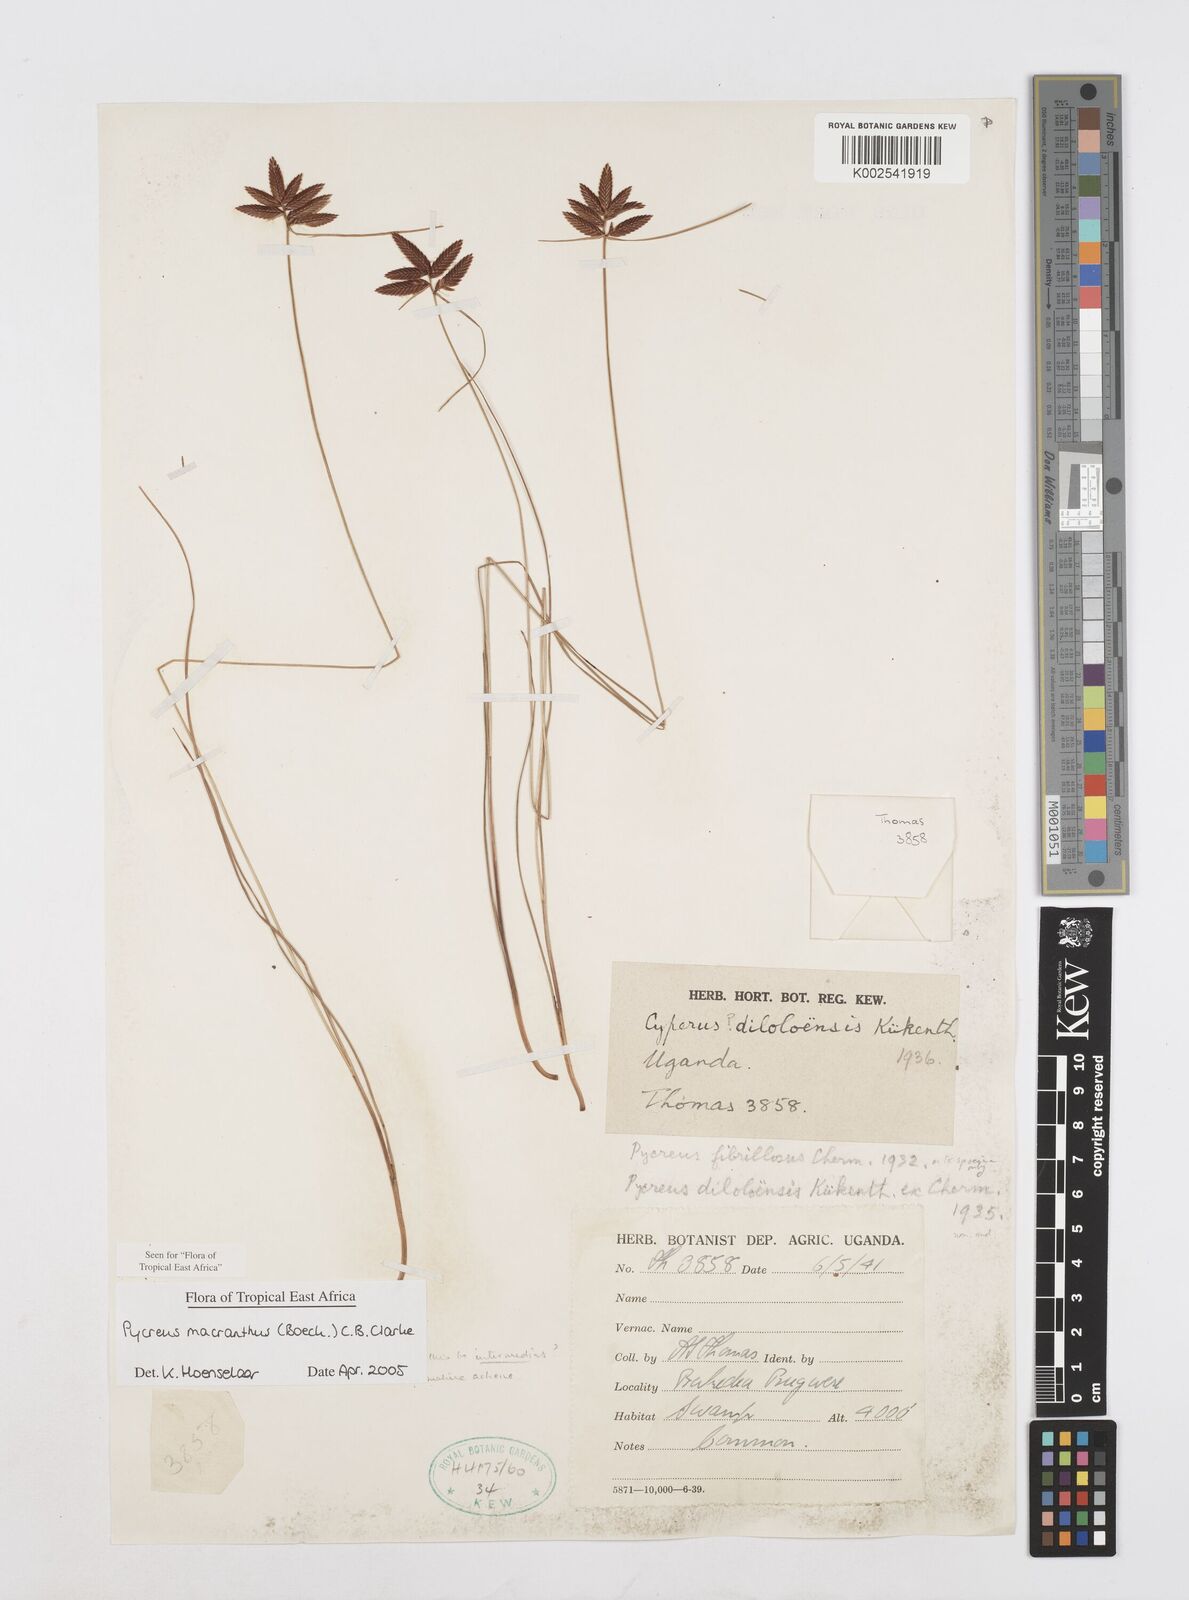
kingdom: Plantae
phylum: Tracheophyta
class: Liliopsida
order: Poales
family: Cyperaceae
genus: Cyperus
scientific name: Cyperus nigricans
